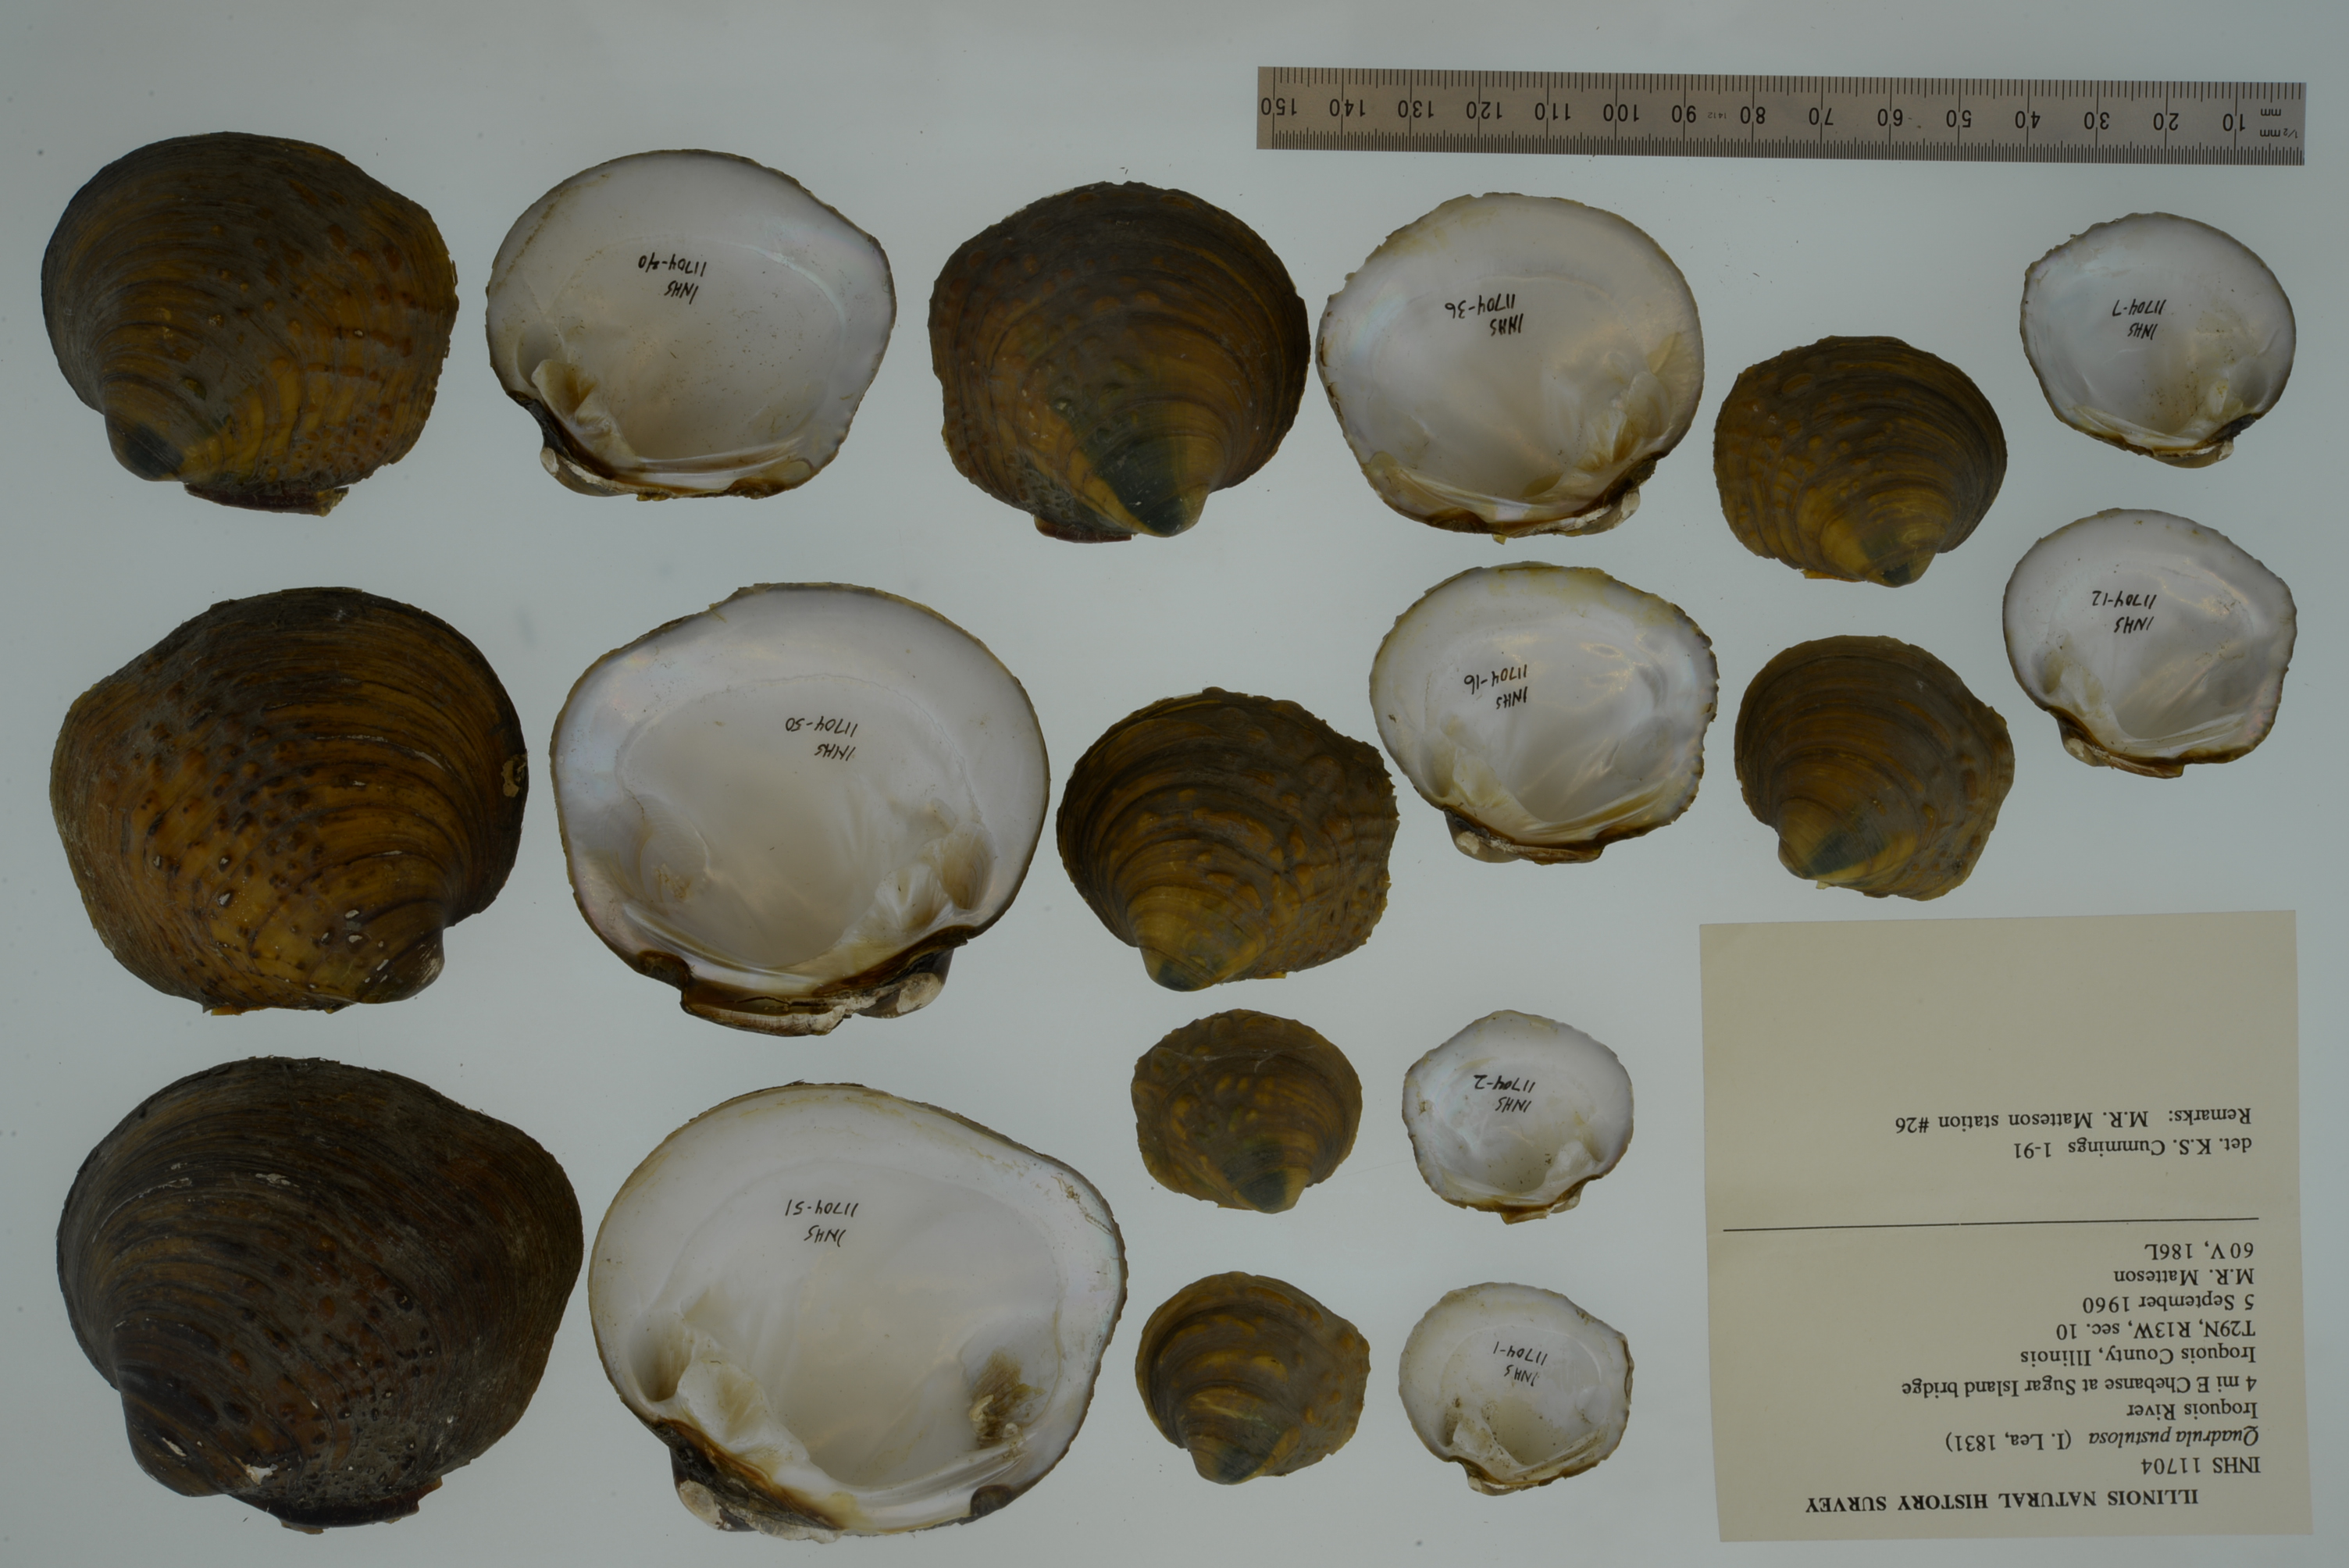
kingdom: Animalia
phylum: Mollusca
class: Bivalvia
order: Unionida
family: Unionidae
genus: Cyclonaias
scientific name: Cyclonaias pustulosa
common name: Pimpleback
